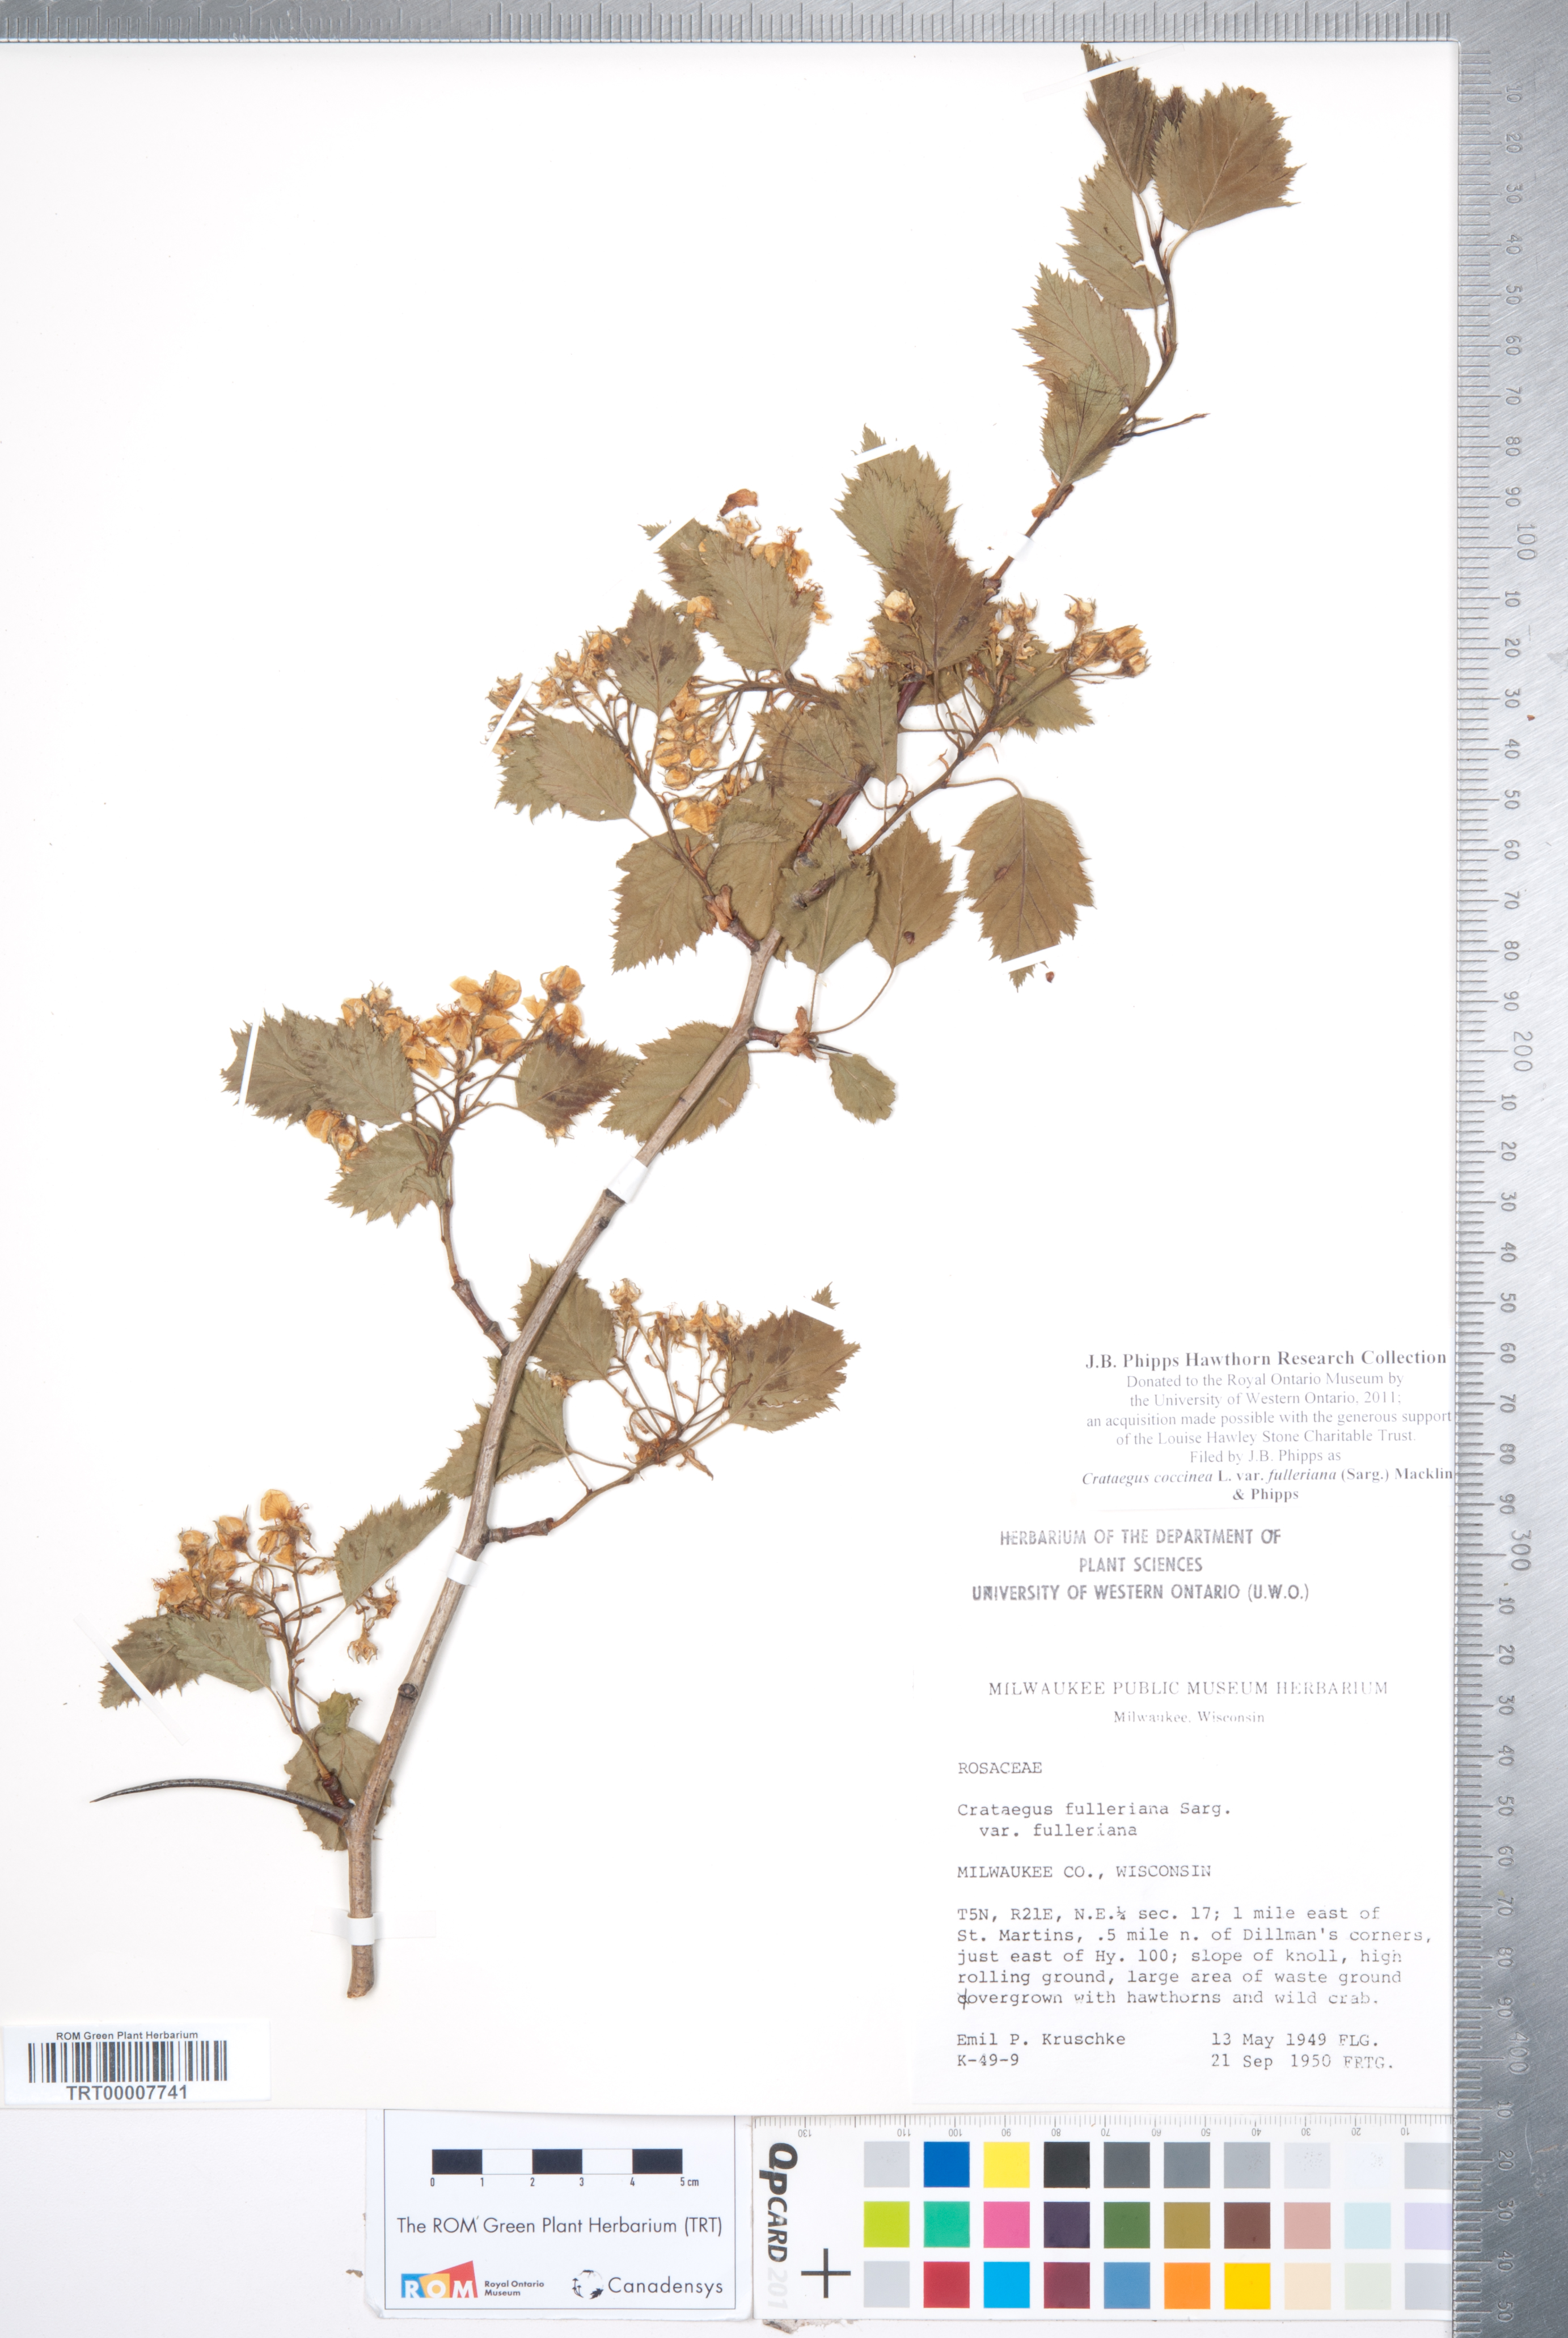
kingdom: Plantae
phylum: Tracheophyta
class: Magnoliopsida
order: Rosales
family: Rosaceae
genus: Crataegus
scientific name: Crataegus coccinea
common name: Scarlet hawthorn
